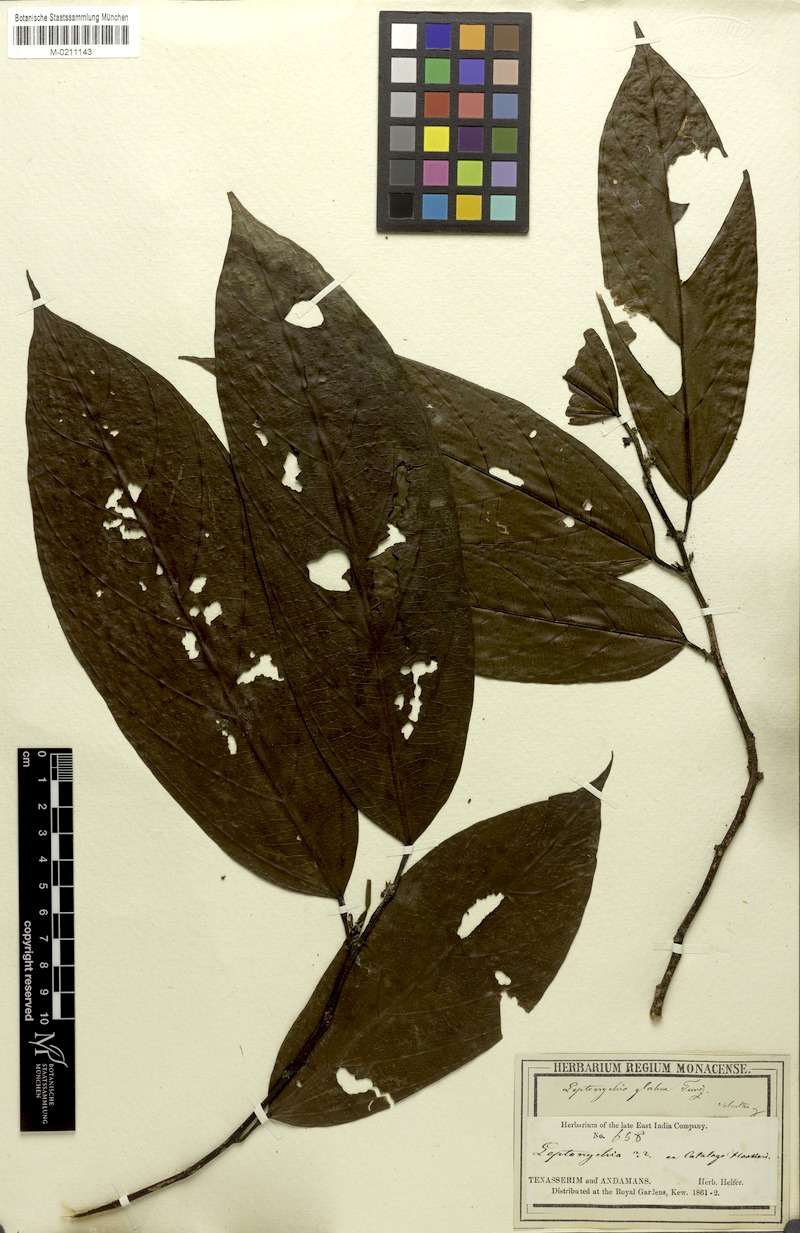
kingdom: Plantae
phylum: Tracheophyta
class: Magnoliopsida
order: Malvales
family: Malvaceae
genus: Leptonychia
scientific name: Leptonychia caudata
